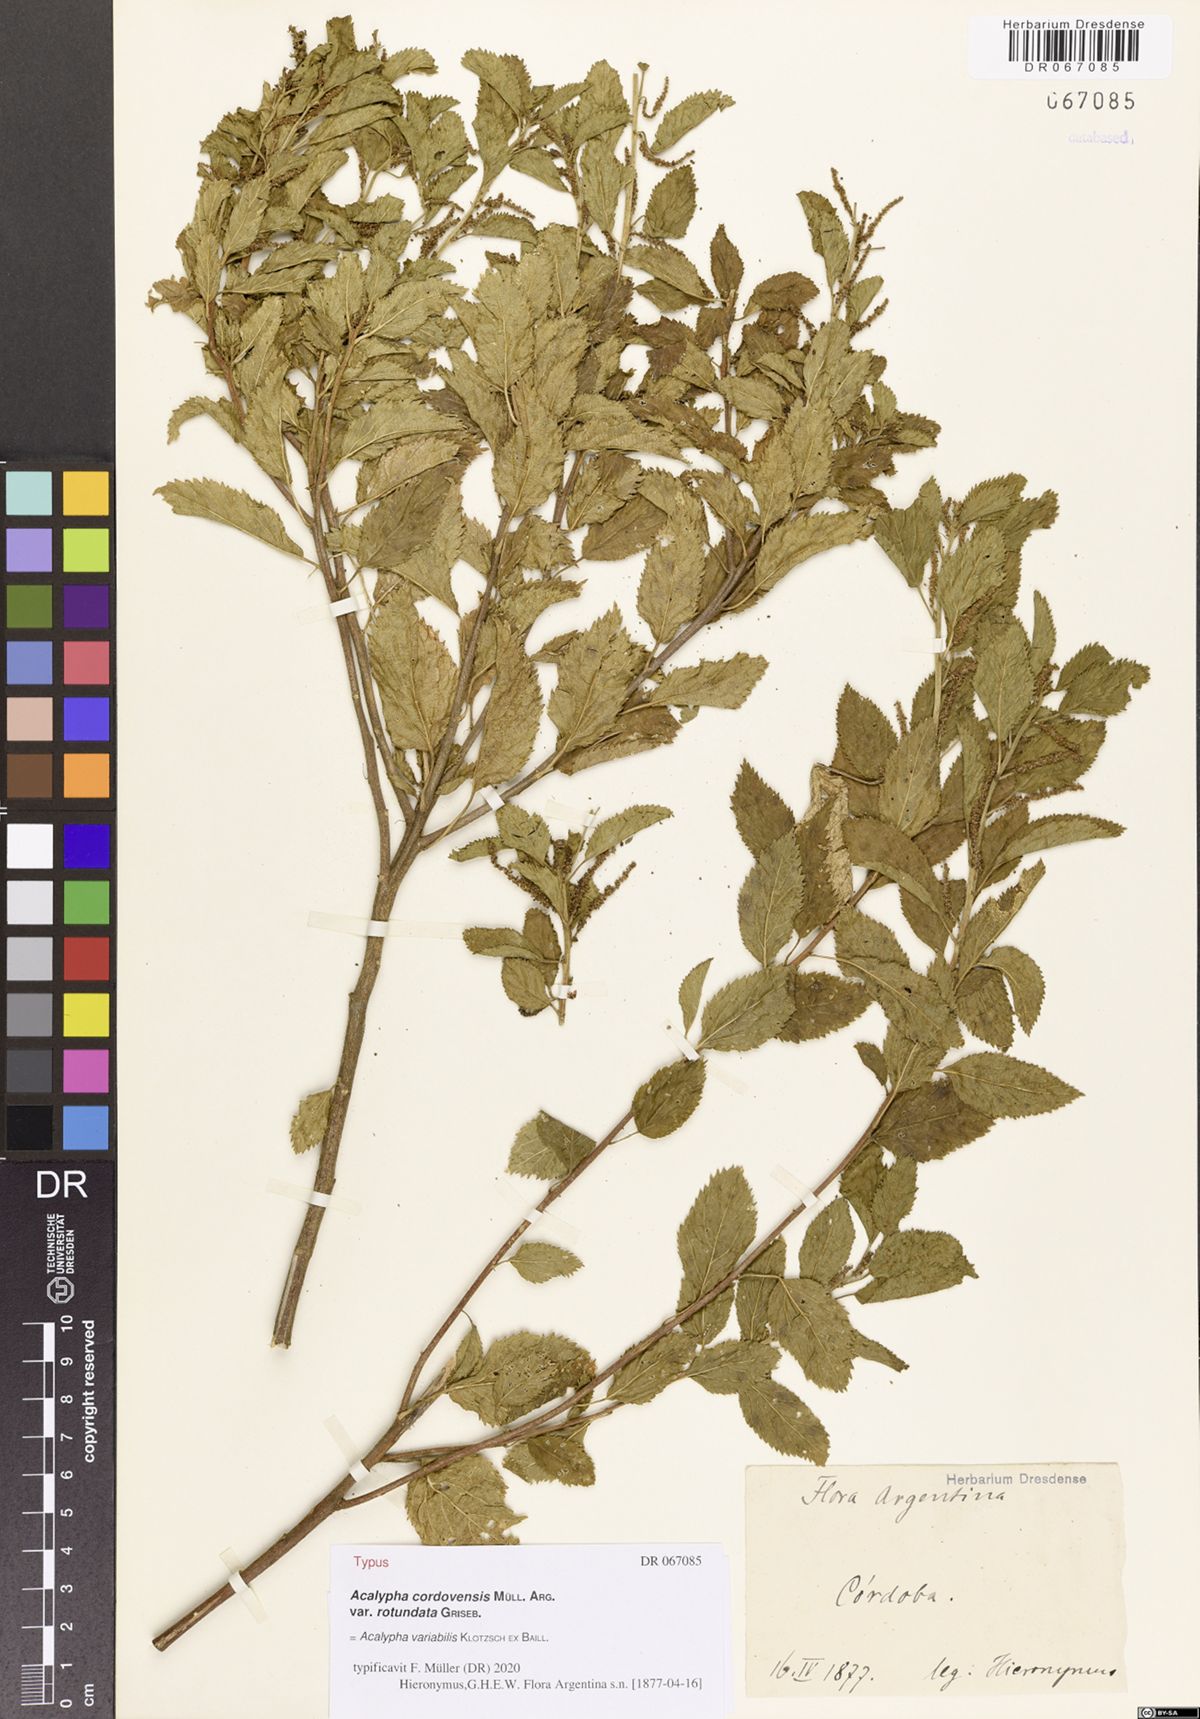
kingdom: Plantae
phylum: Tracheophyta
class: Magnoliopsida
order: Malpighiales
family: Euphorbiaceae
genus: Acalypha
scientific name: Acalypha variabilis
